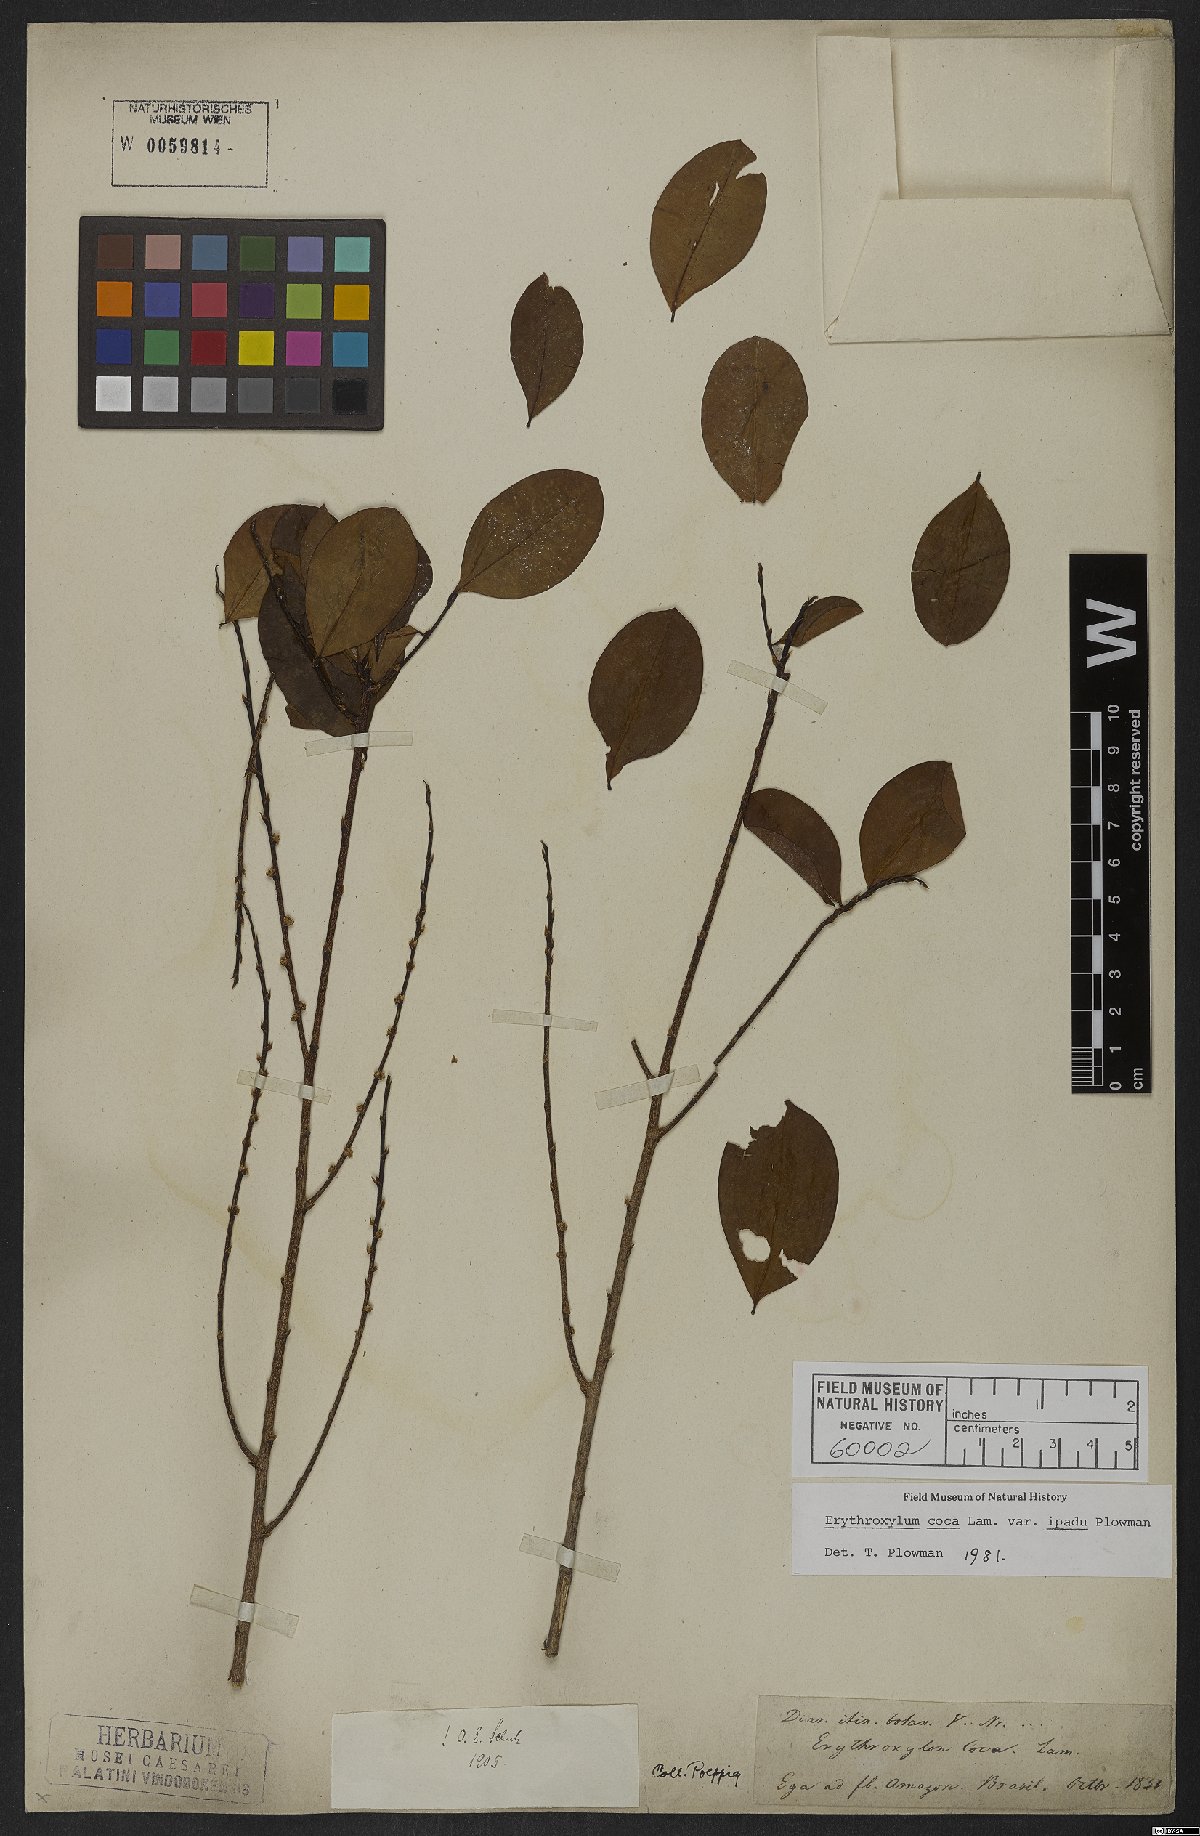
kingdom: Plantae
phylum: Tracheophyta
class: Magnoliopsida
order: Malpighiales
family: Erythroxylaceae
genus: Erythroxylum
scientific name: Erythroxylum coca
